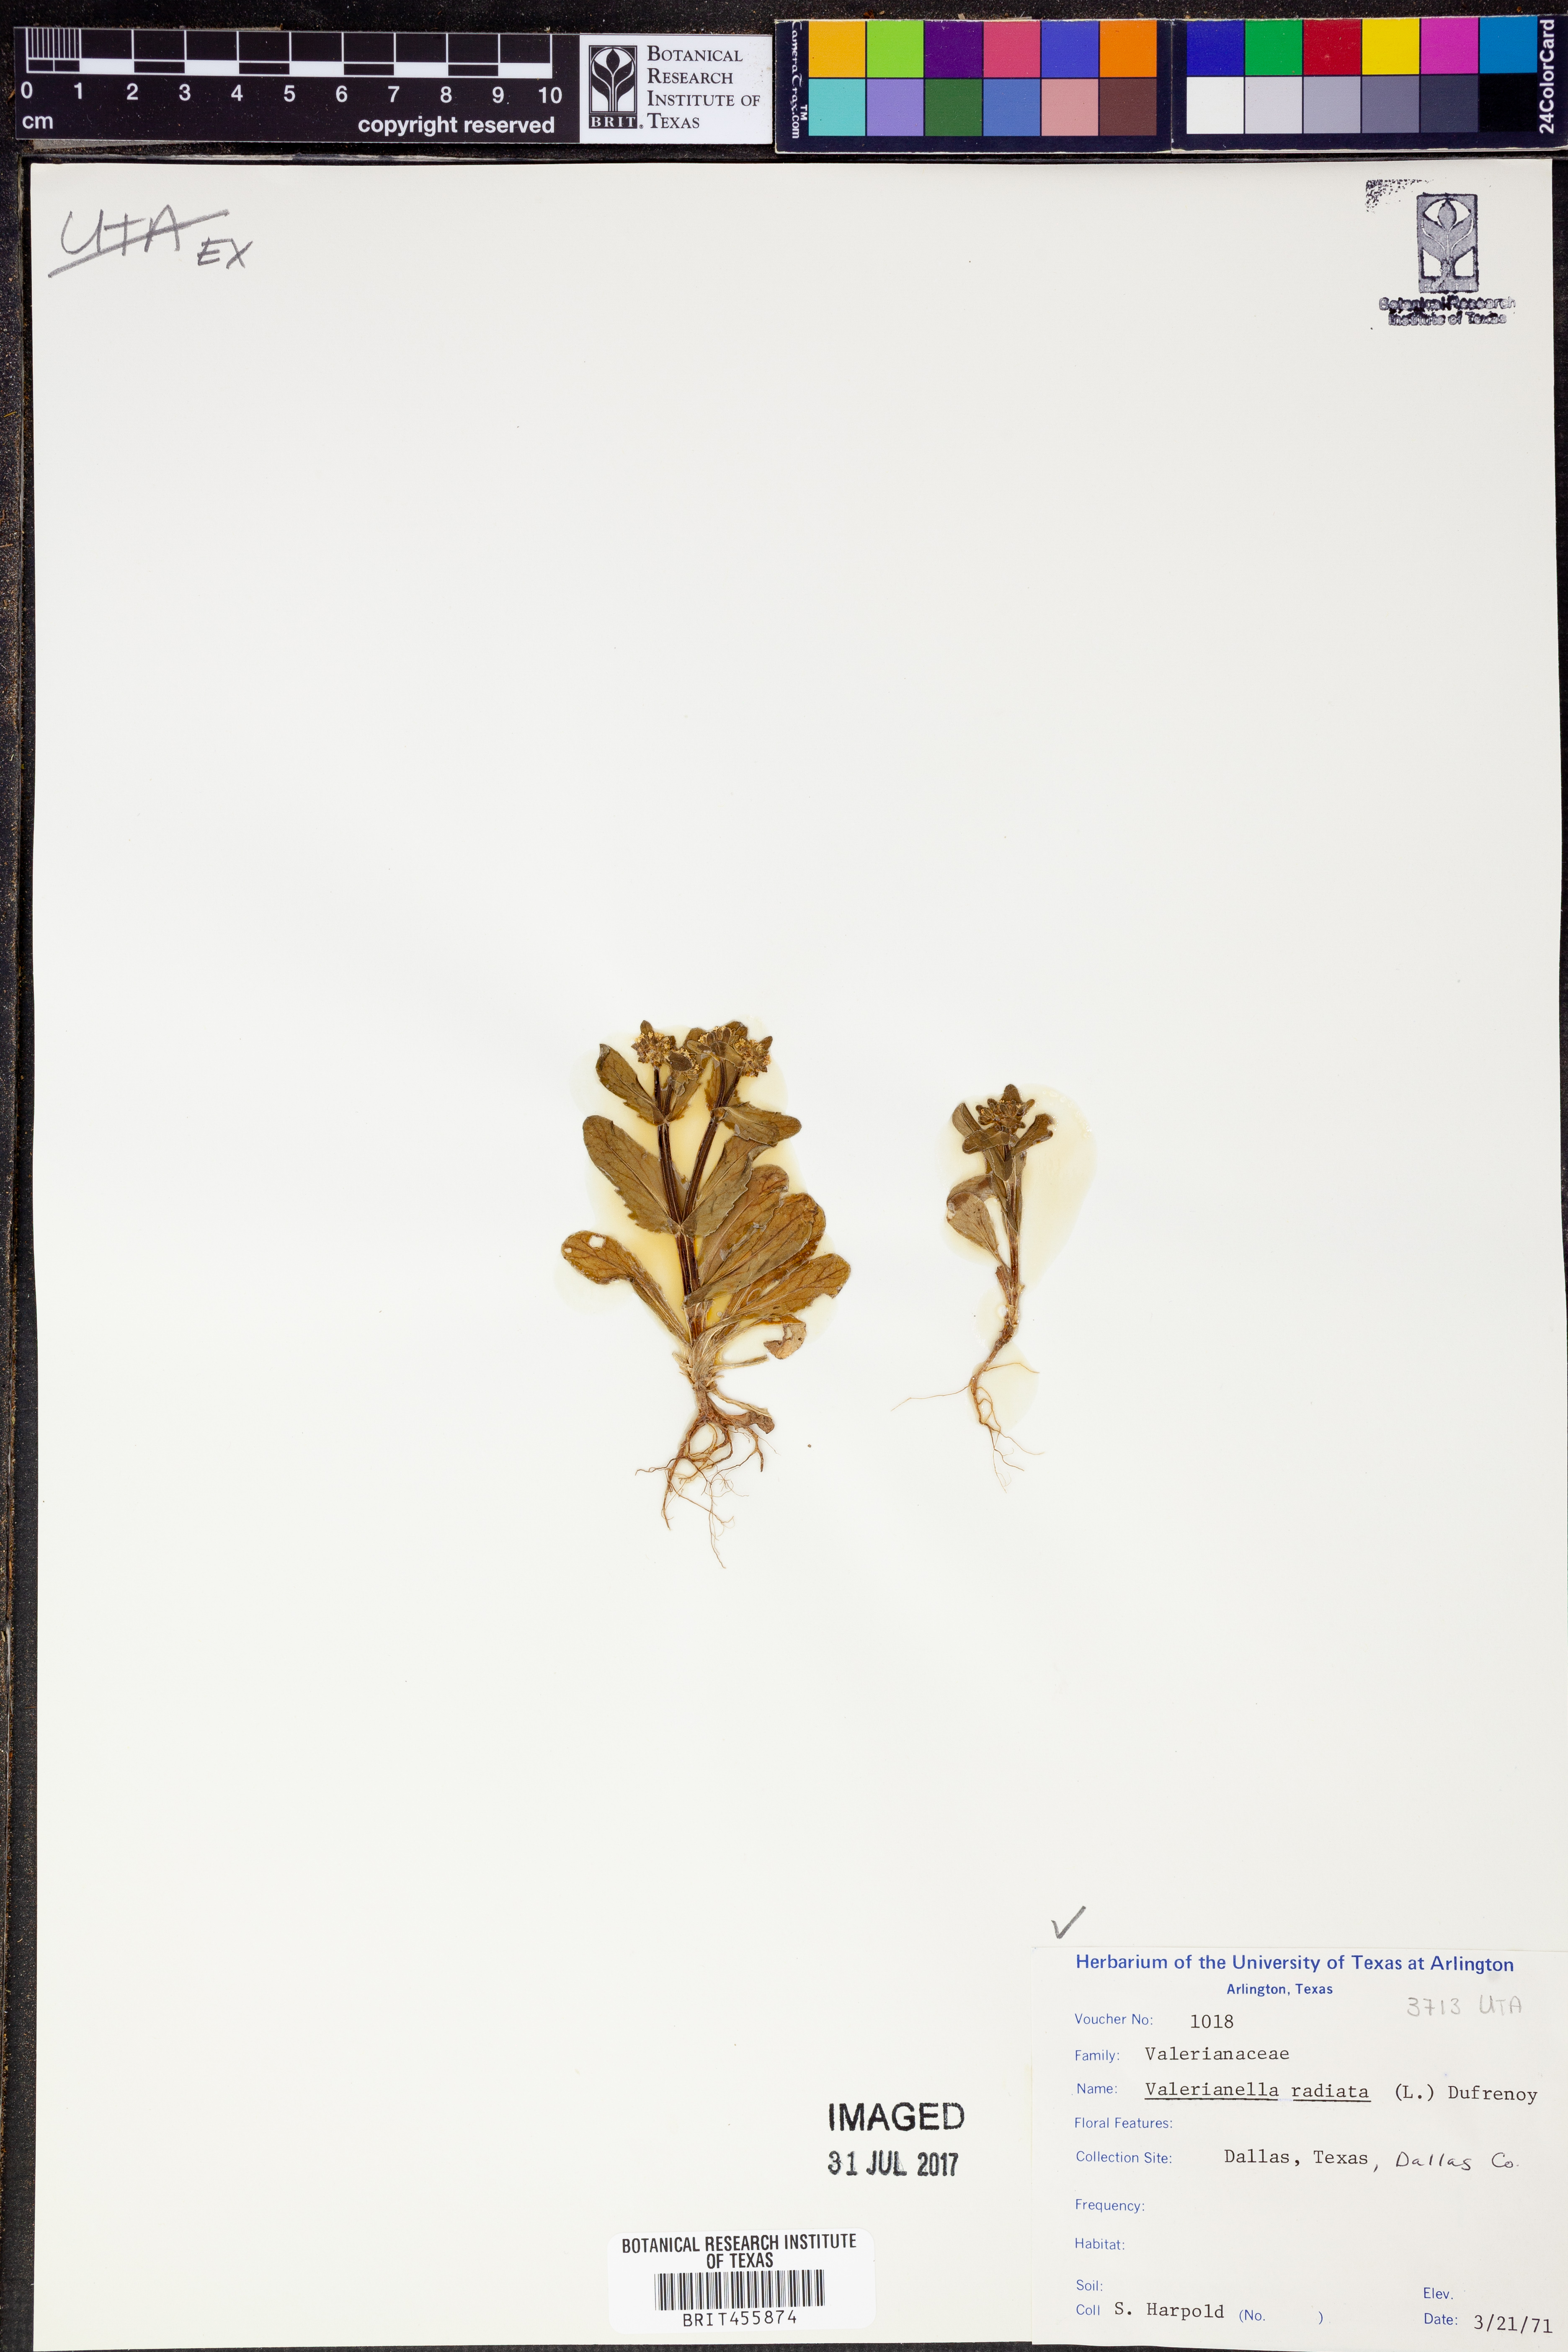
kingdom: Plantae
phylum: Tracheophyta
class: Magnoliopsida
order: Dipsacales
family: Caprifoliaceae
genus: Valerianella
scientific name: Valerianella radiata
